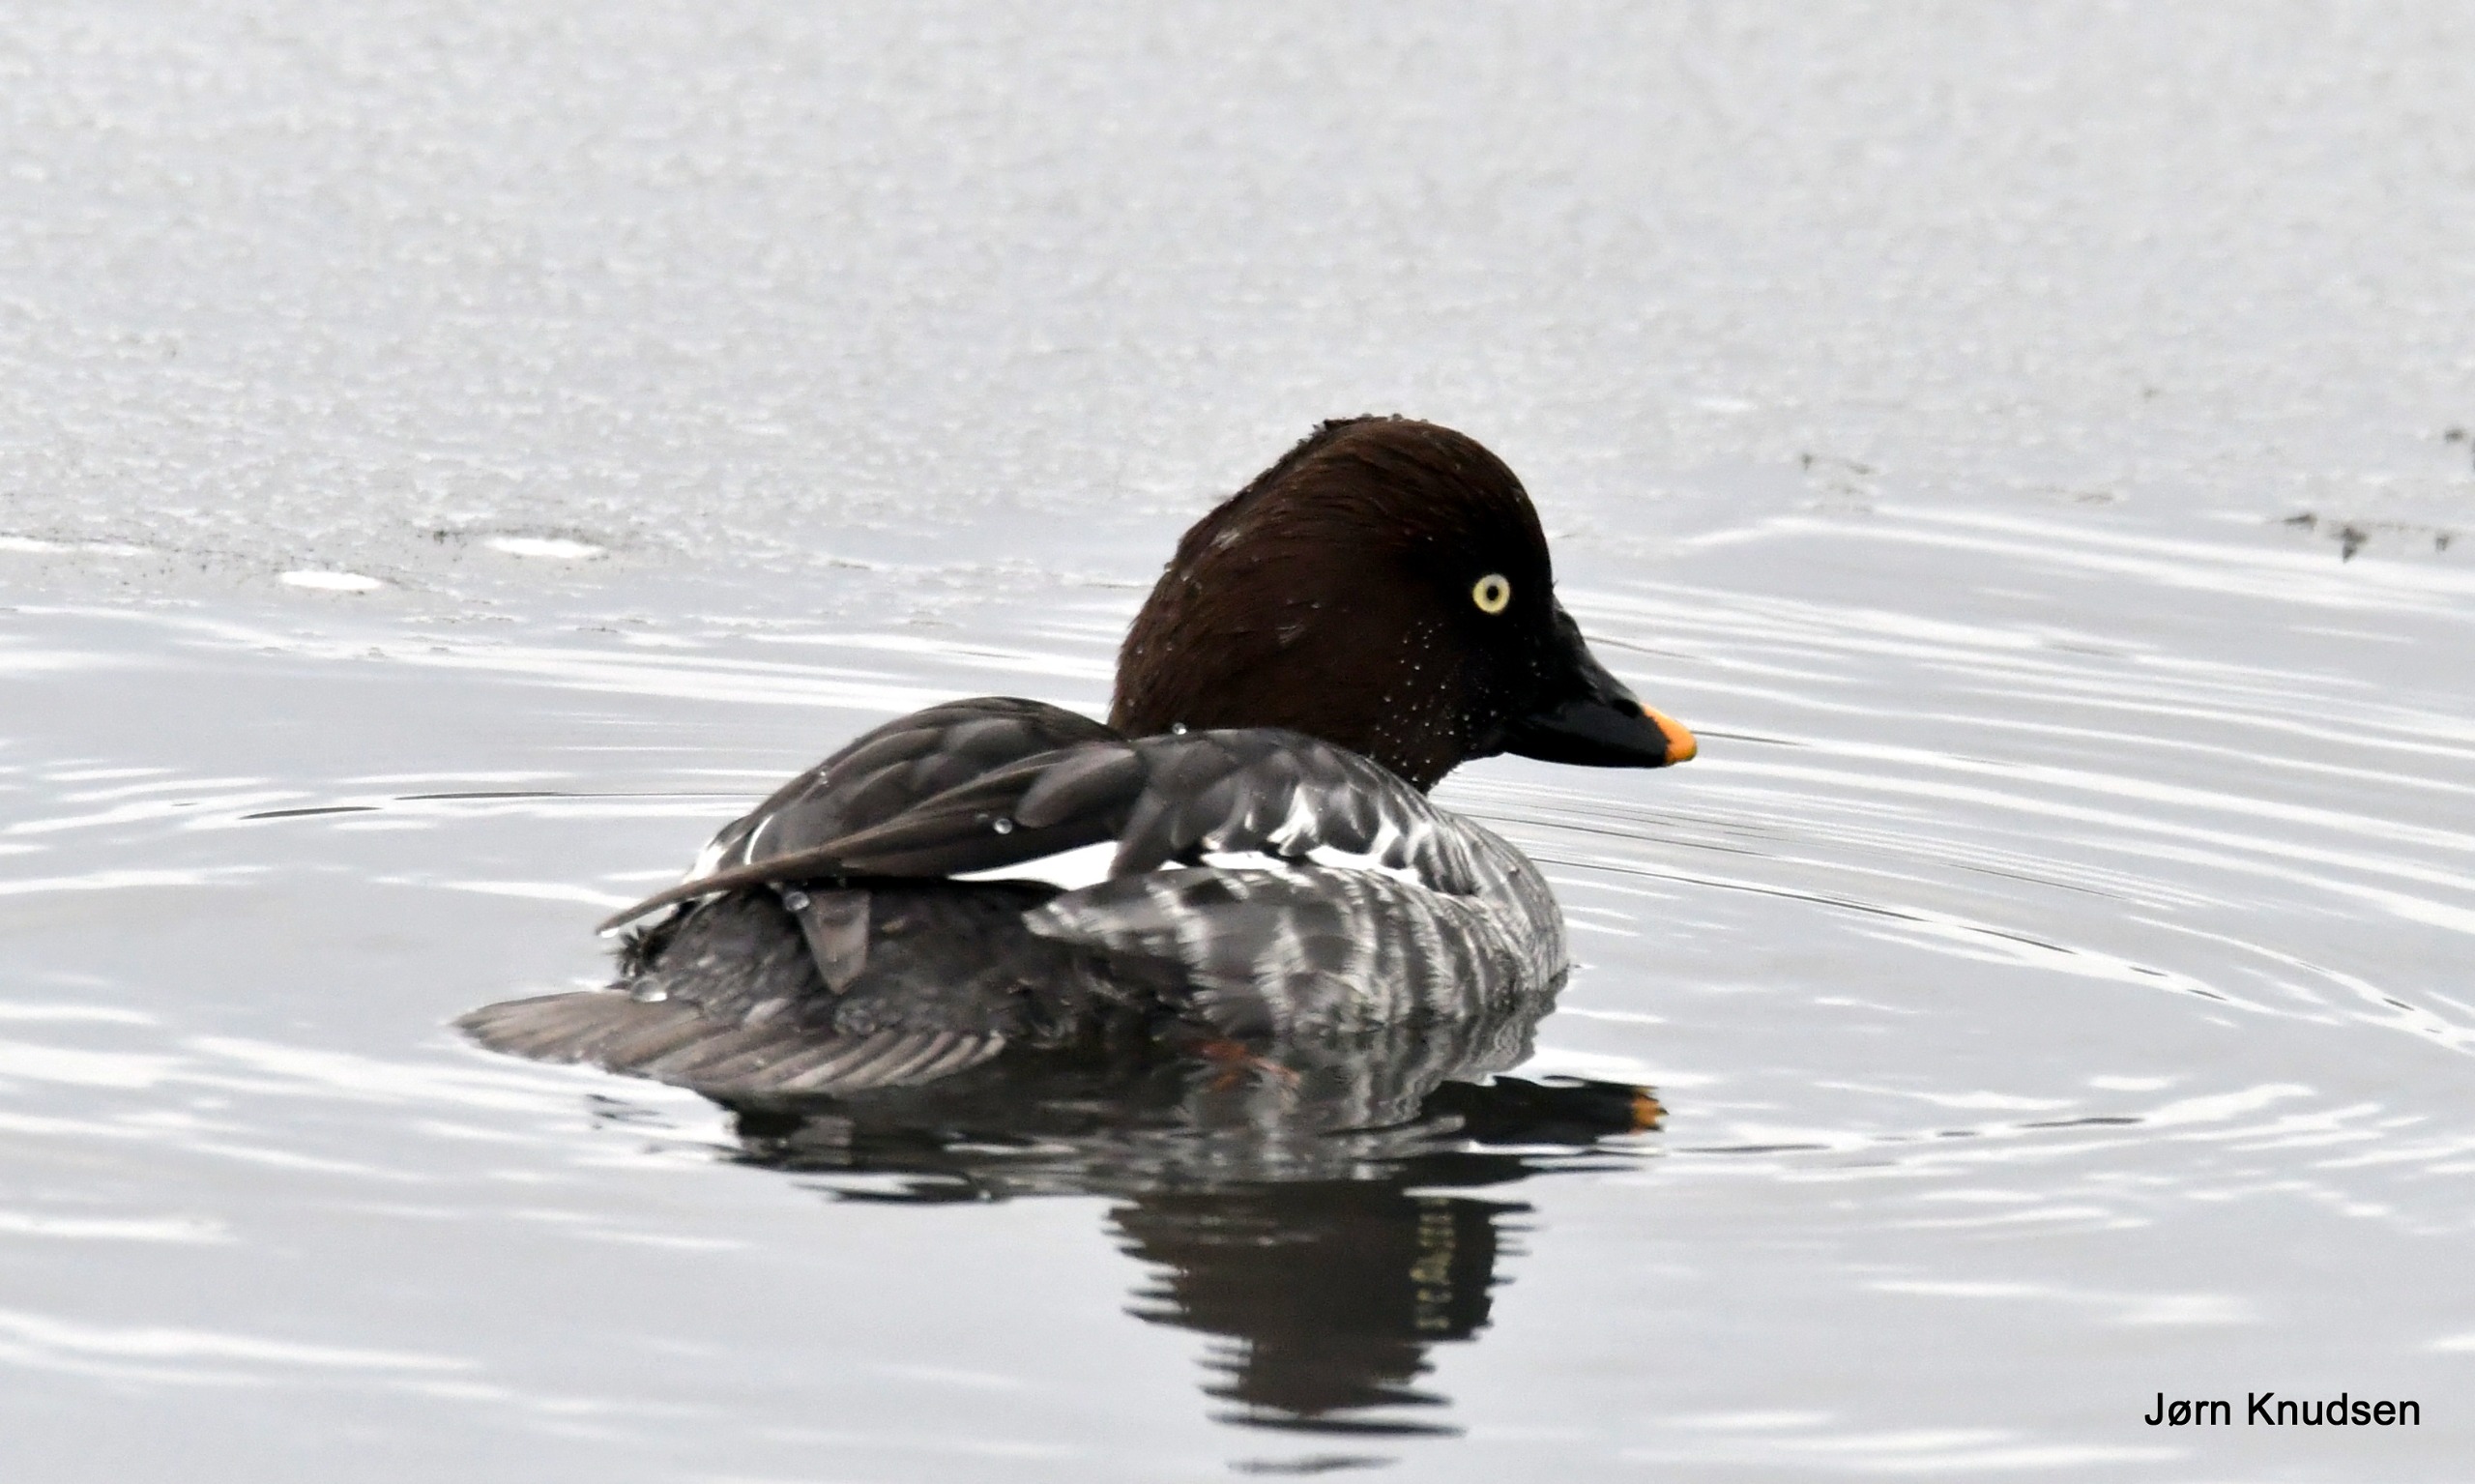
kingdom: Animalia
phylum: Chordata
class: Aves
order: Anseriformes
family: Anatidae
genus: Bucephala
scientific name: Bucephala clangula
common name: Hvinand
